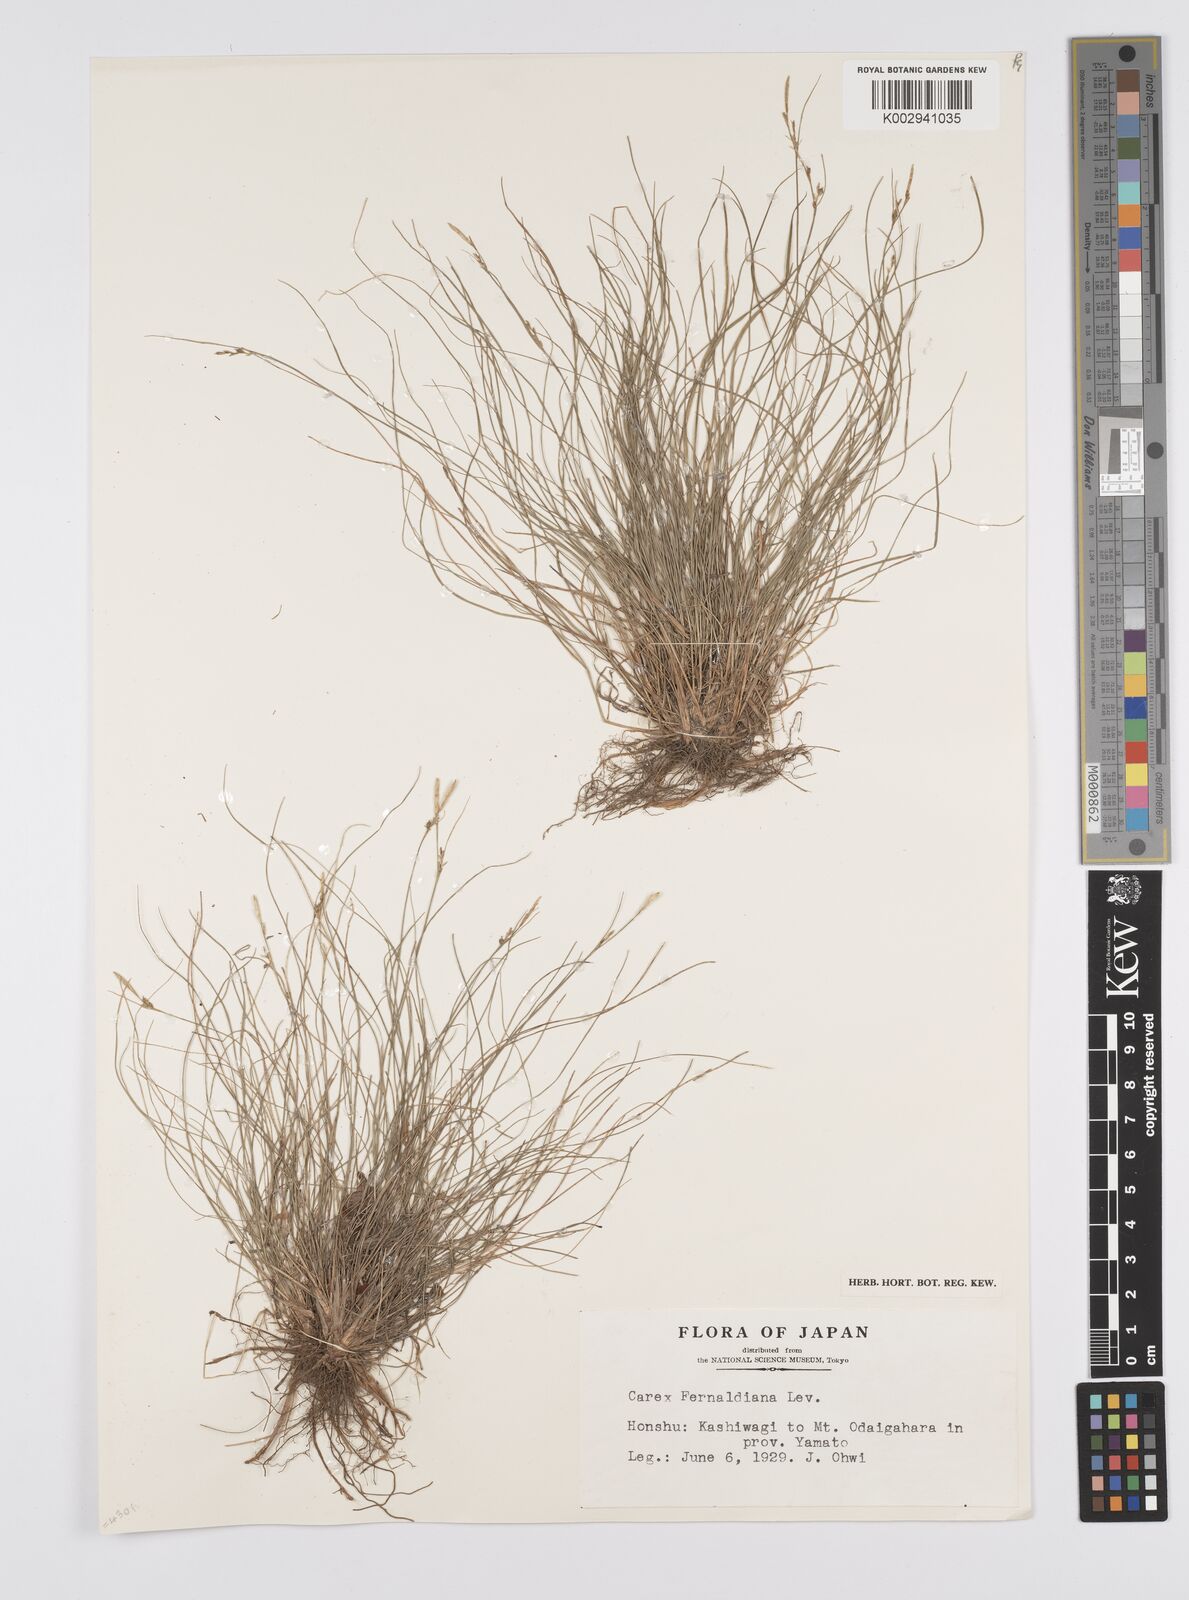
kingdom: Plantae
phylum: Tracheophyta
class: Liliopsida
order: Poales
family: Cyperaceae
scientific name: Cyperaceae
